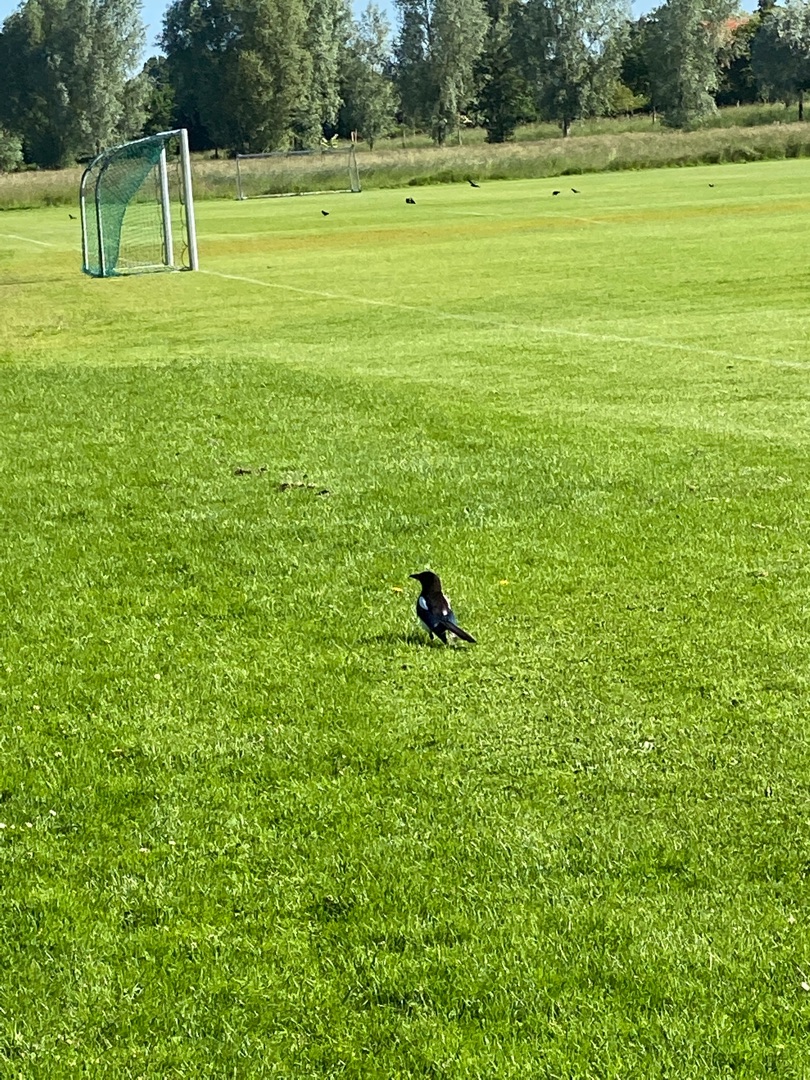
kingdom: Animalia
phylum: Chordata
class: Aves
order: Passeriformes
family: Corvidae
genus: Pica
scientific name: Pica pica
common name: Husskade
